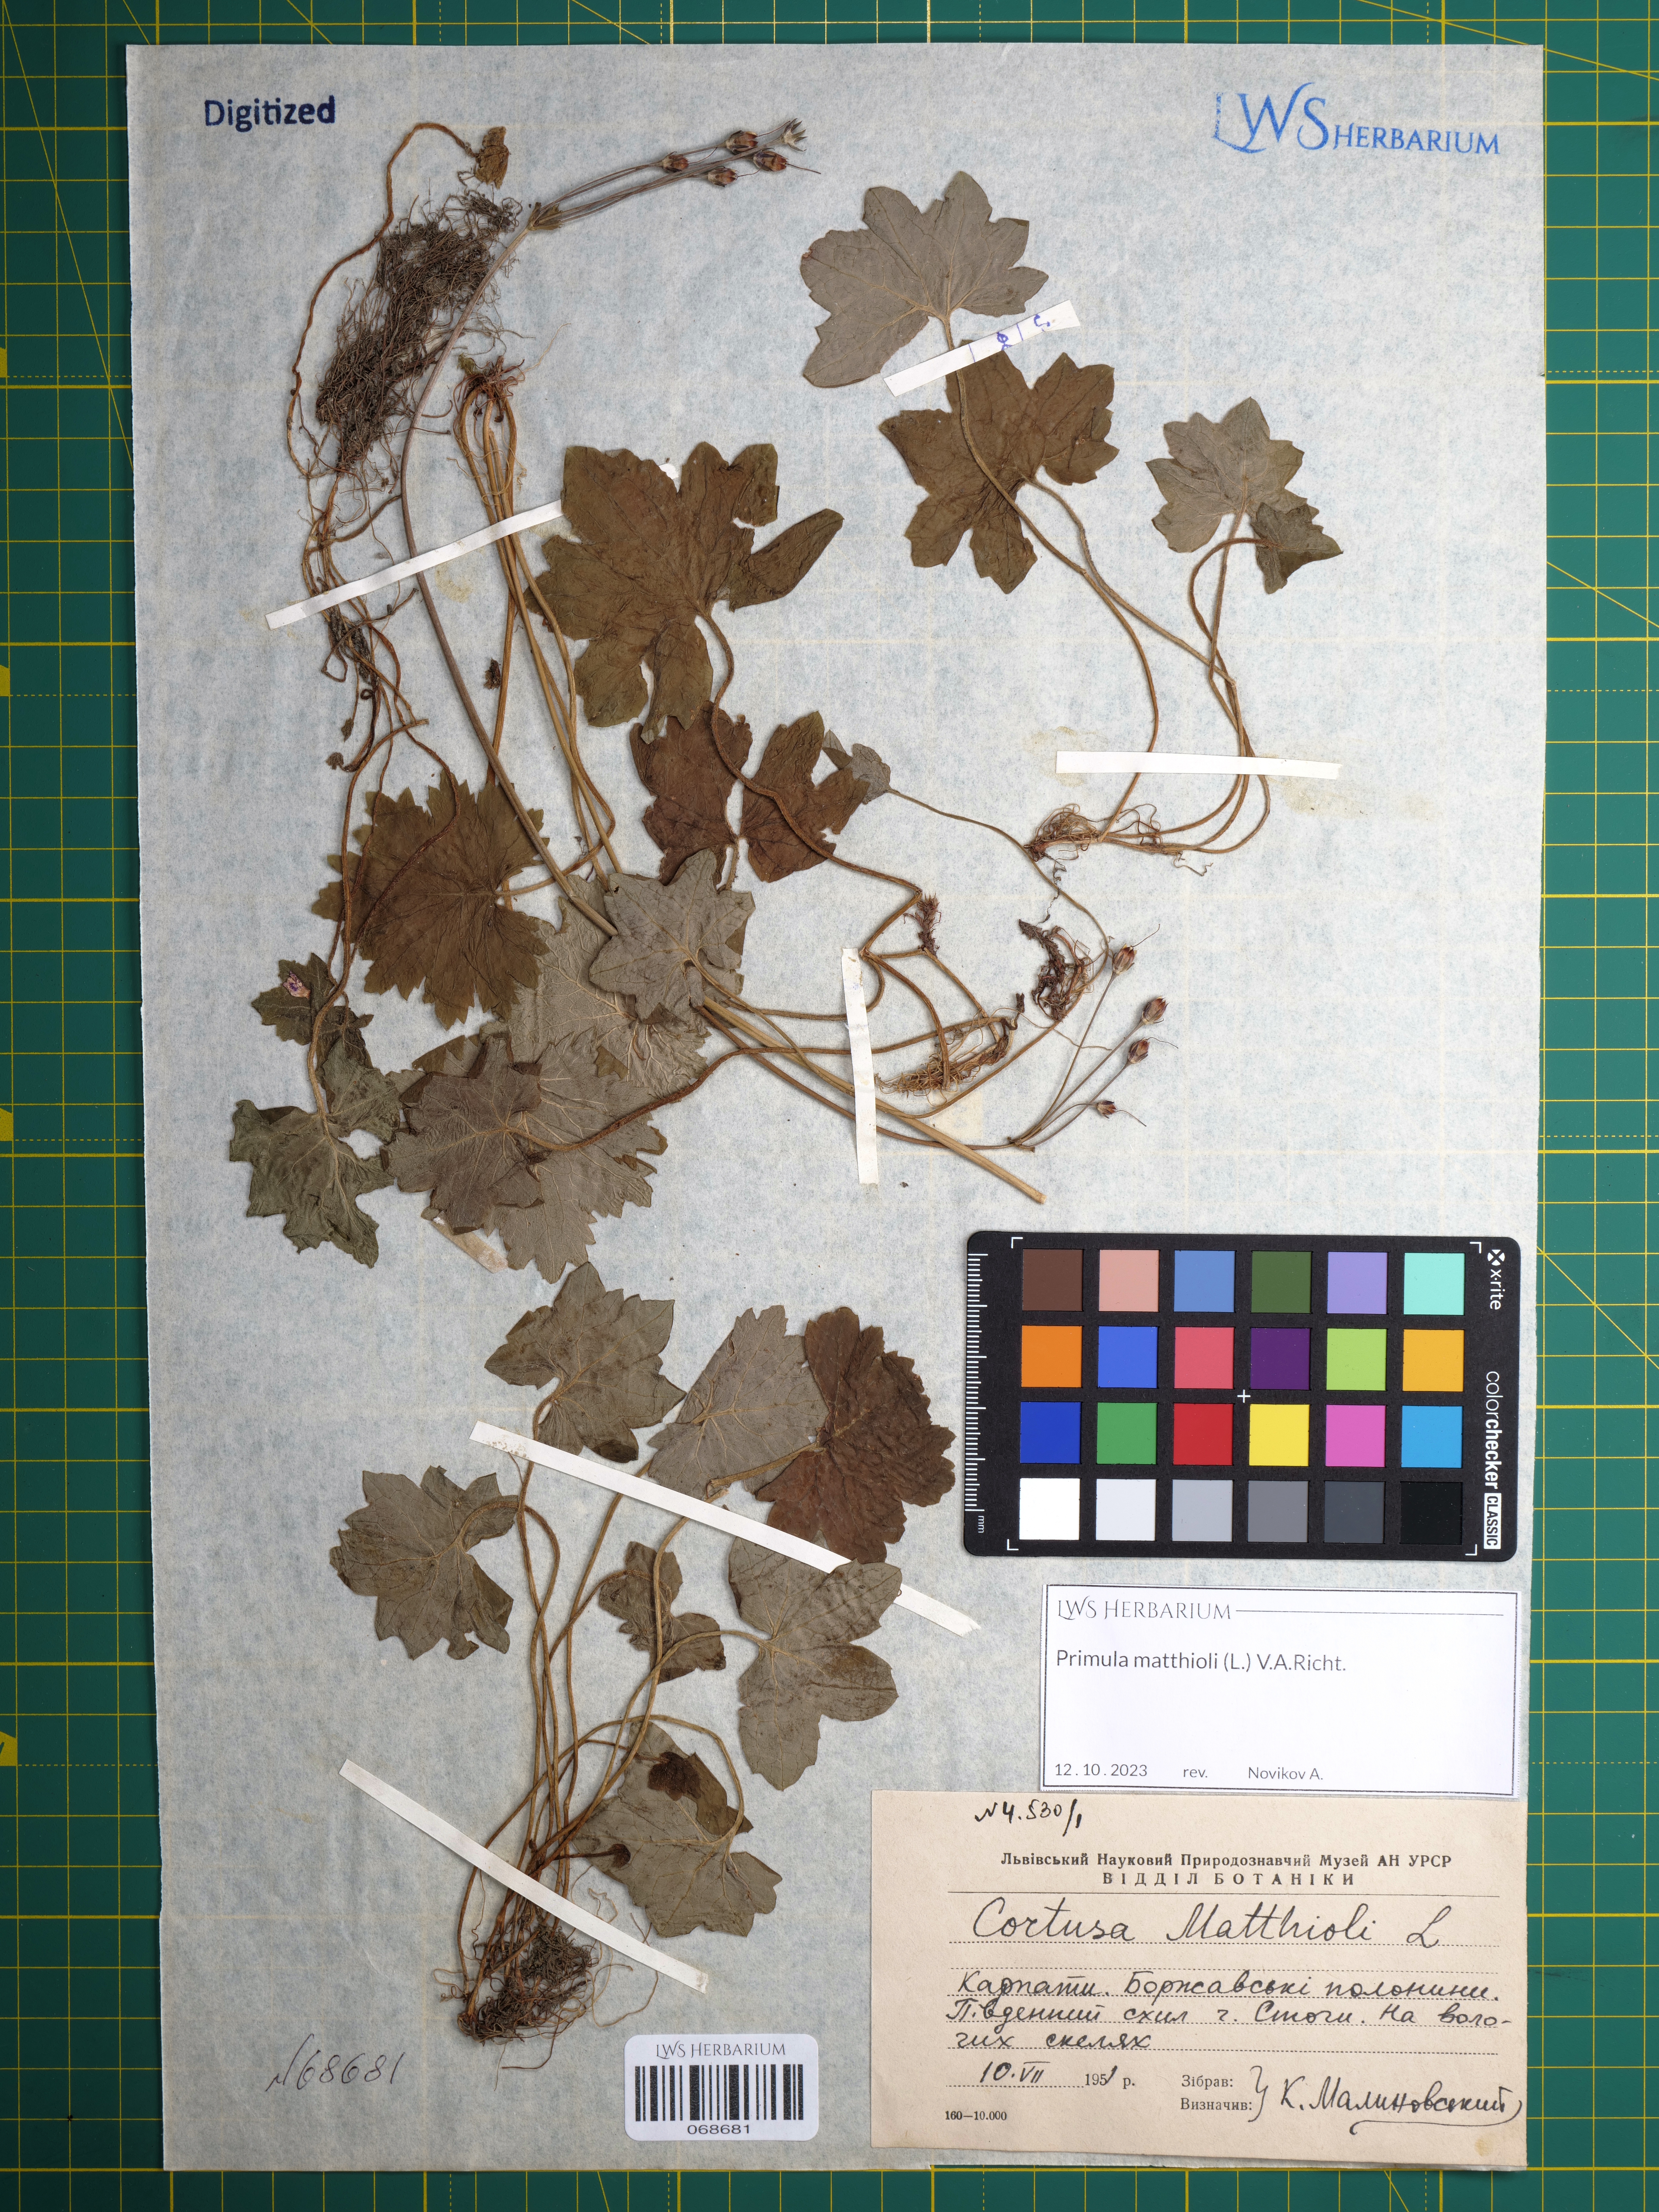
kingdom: Plantae
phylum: Tracheophyta
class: Magnoliopsida
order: Ericales
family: Primulaceae
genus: Primula
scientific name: Primula matthioli
